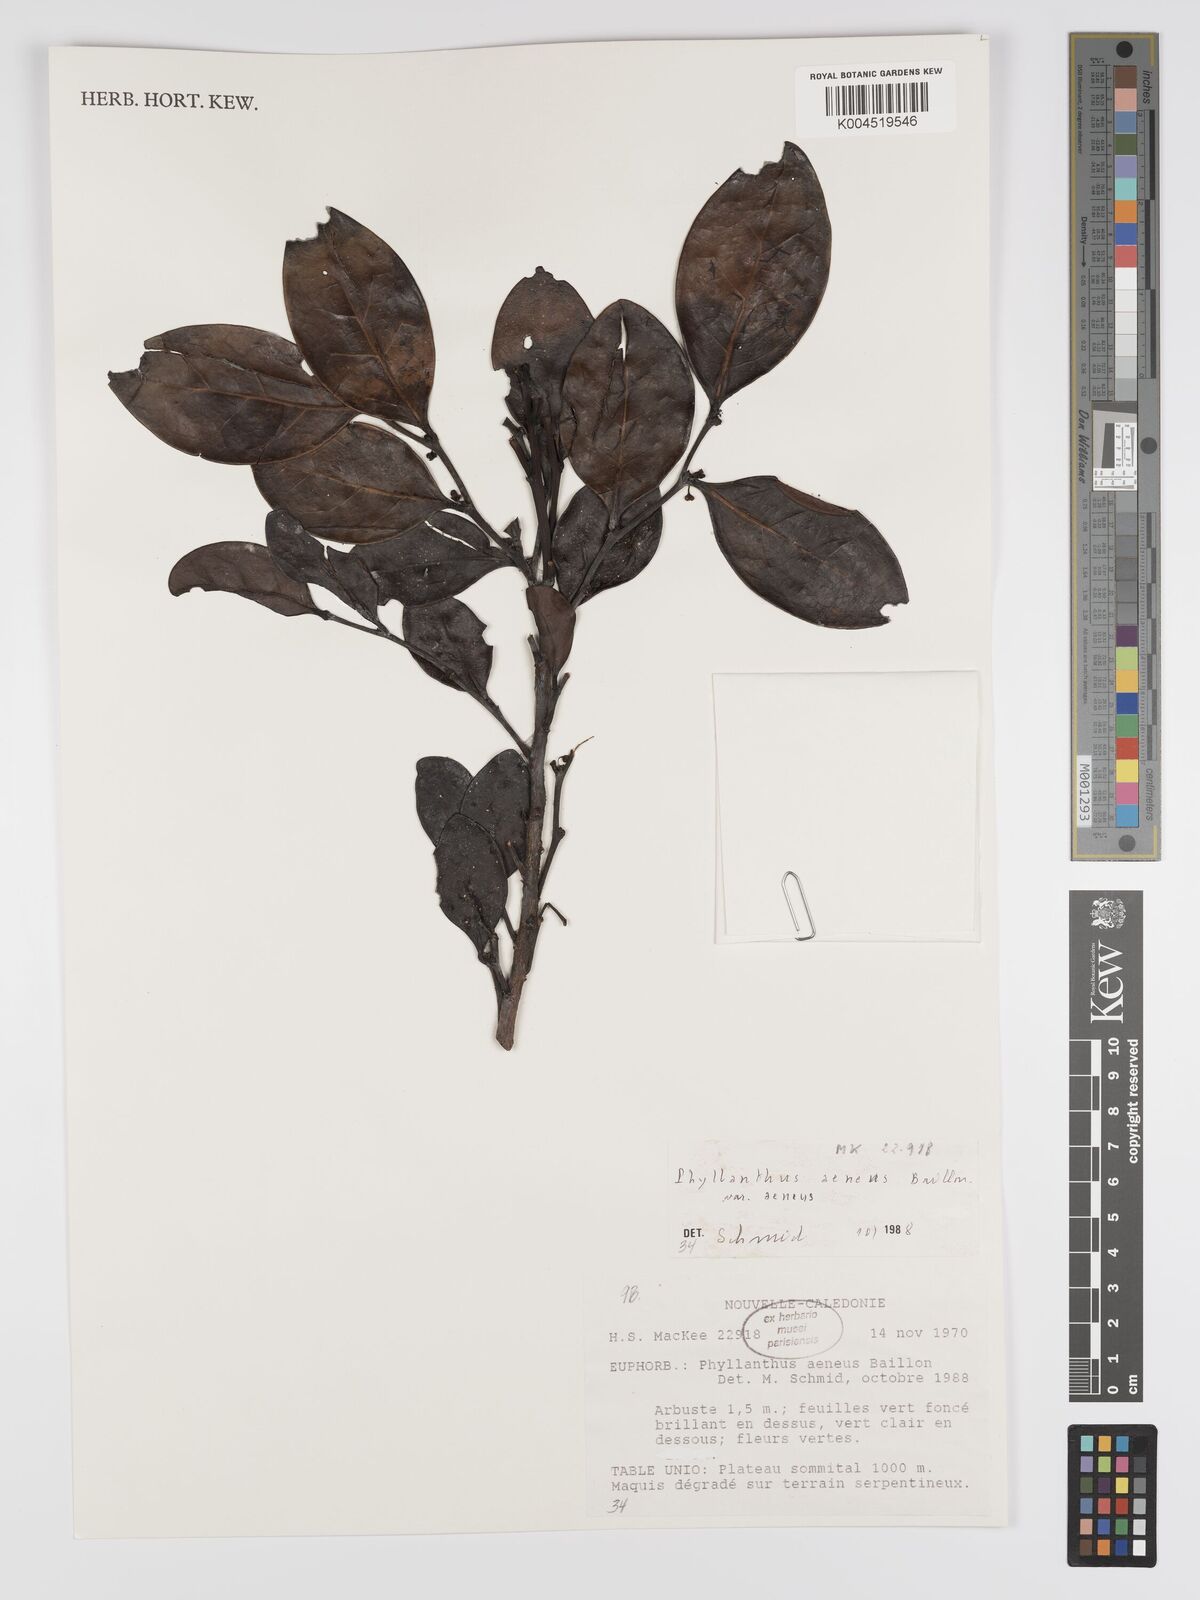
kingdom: Plantae
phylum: Tracheophyta
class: Magnoliopsida
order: Malpighiales
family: Phyllanthaceae
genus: Phyllanthus
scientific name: Phyllanthus aeneus
